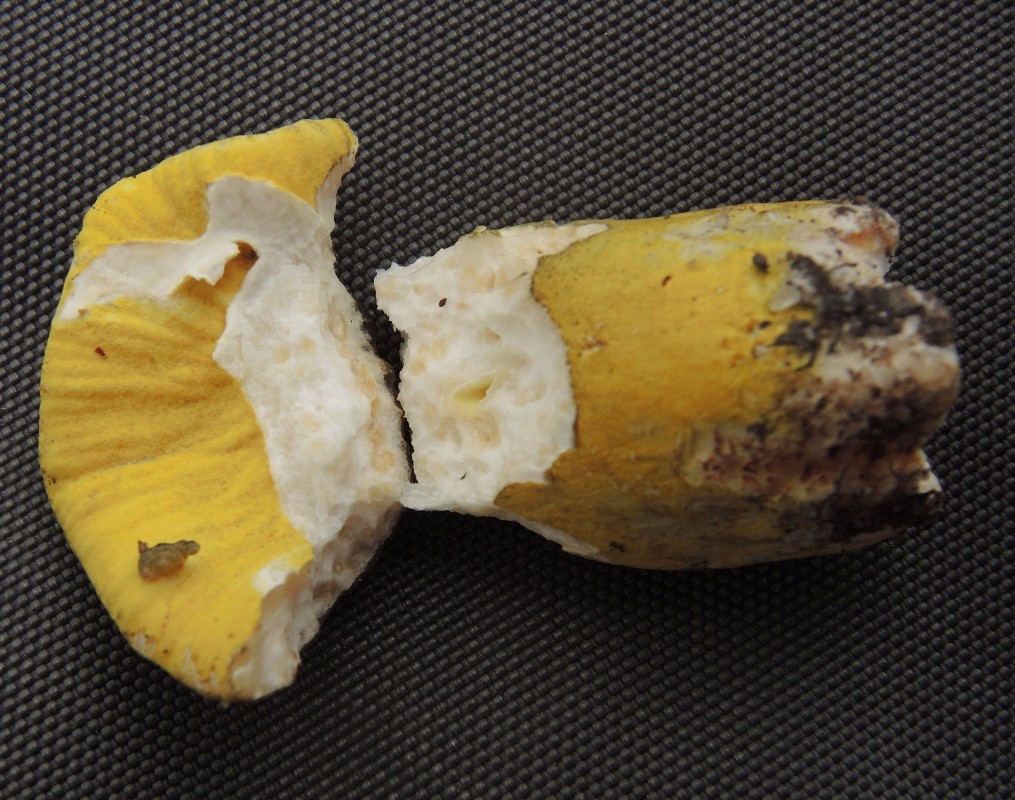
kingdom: Fungi
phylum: Ascomycota
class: Sordariomycetes
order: Hypocreales
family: Hypocreaceae
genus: Hypomyces
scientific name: Hypomyces luteovirens
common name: gulgrøn snylteskorpe
